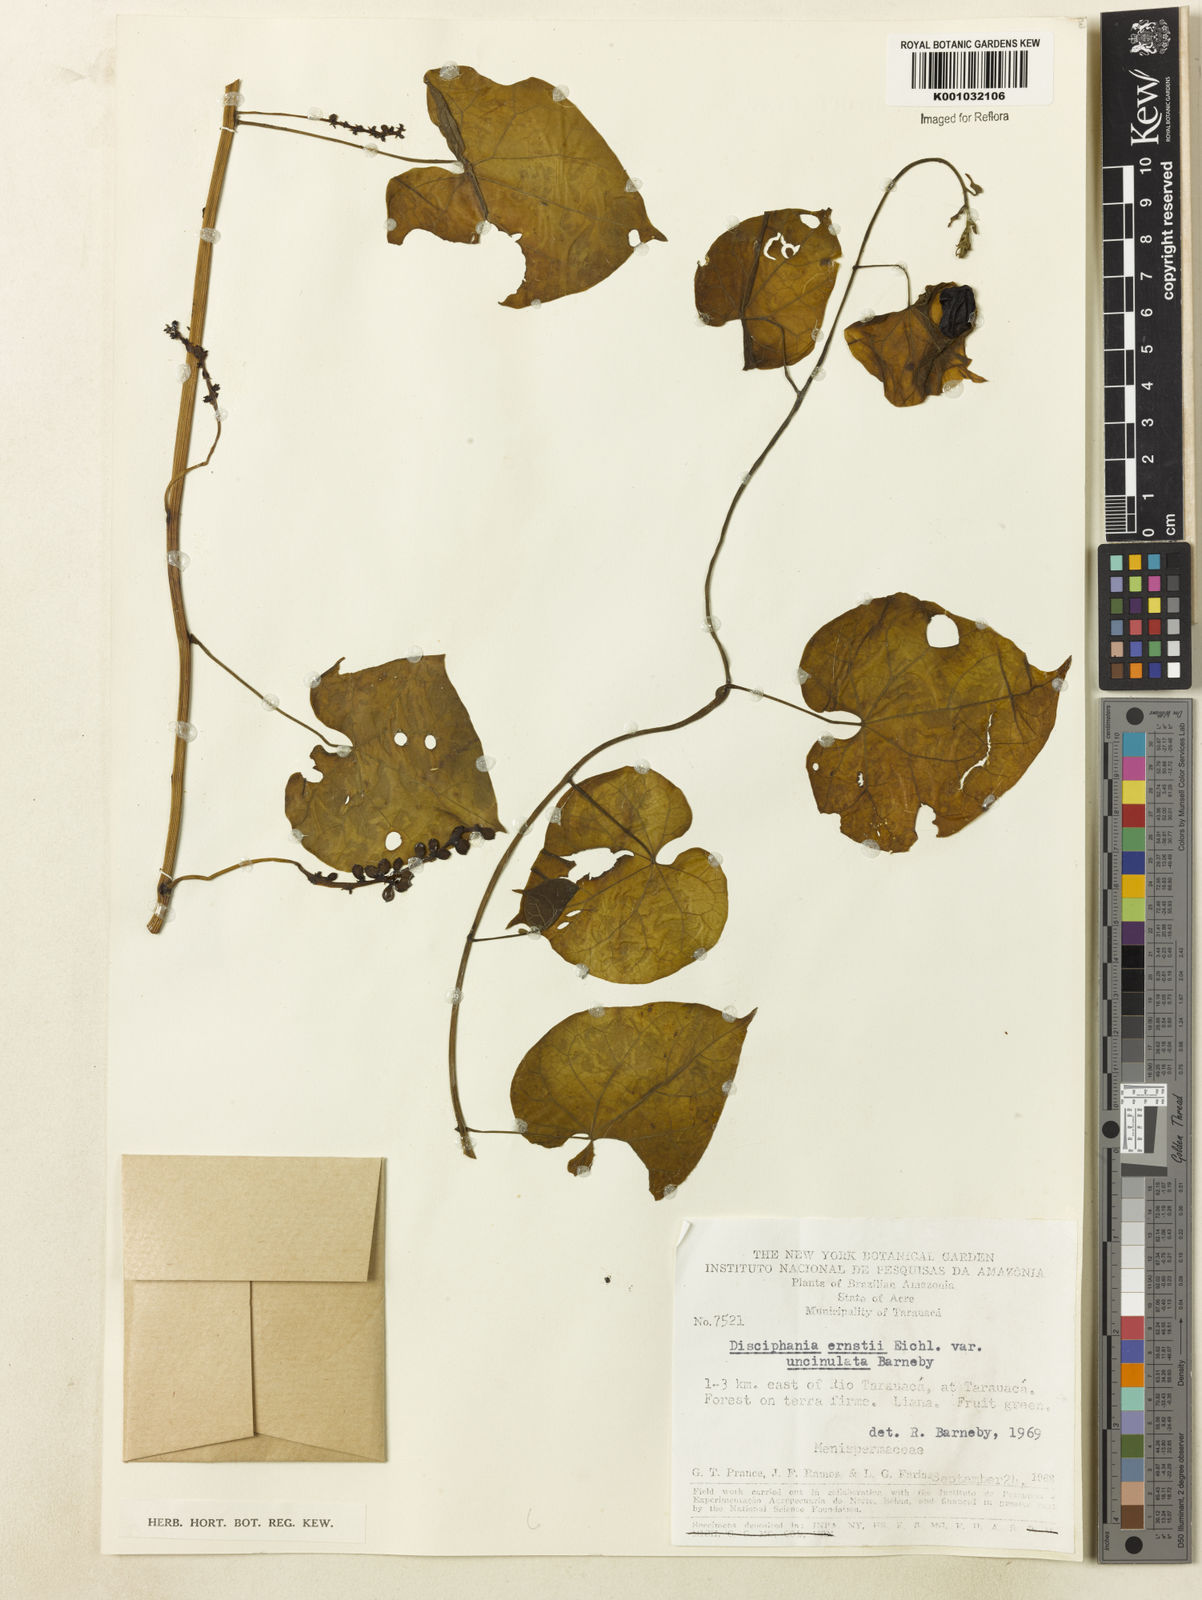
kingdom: Plantae
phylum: Tracheophyta
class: Magnoliopsida
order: Ranunculales
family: Menispermaceae
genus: Disciphania
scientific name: Disciphania ernstii
